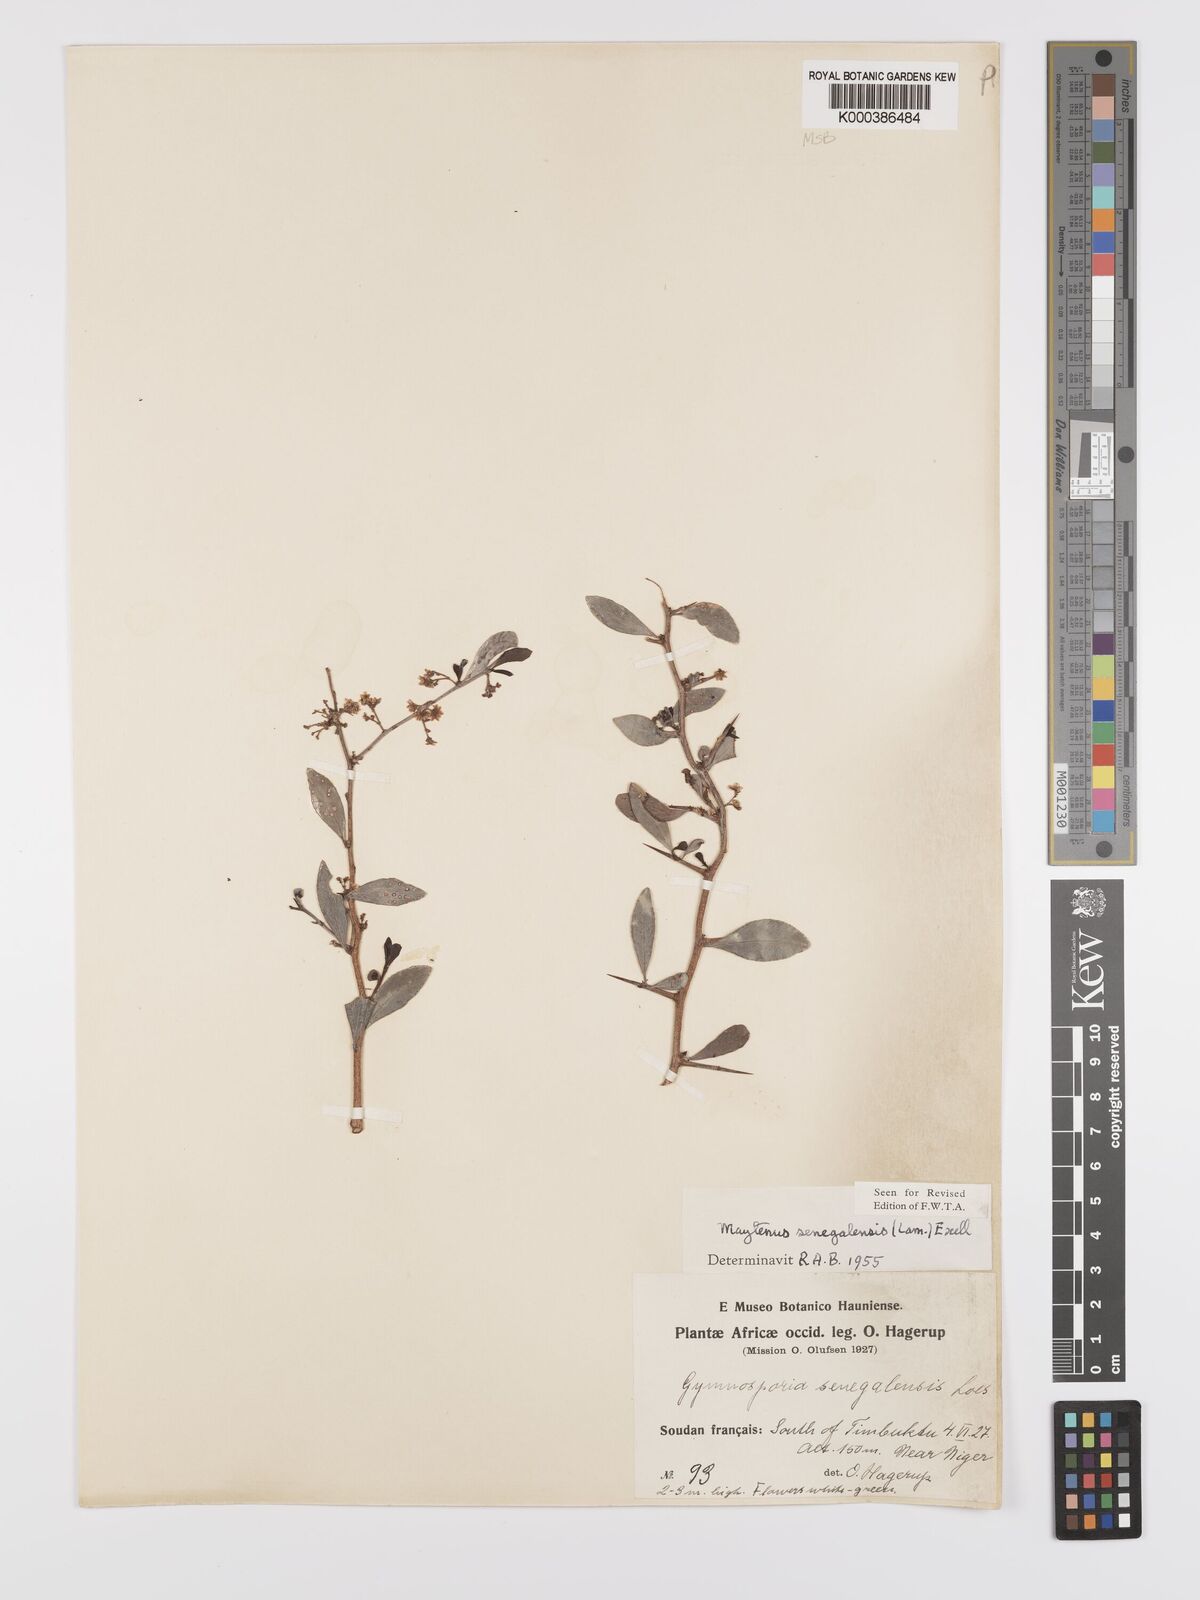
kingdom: Plantae
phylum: Tracheophyta
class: Magnoliopsida
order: Celastrales
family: Celastraceae
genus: Gymnosporia
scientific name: Gymnosporia senegalensis
